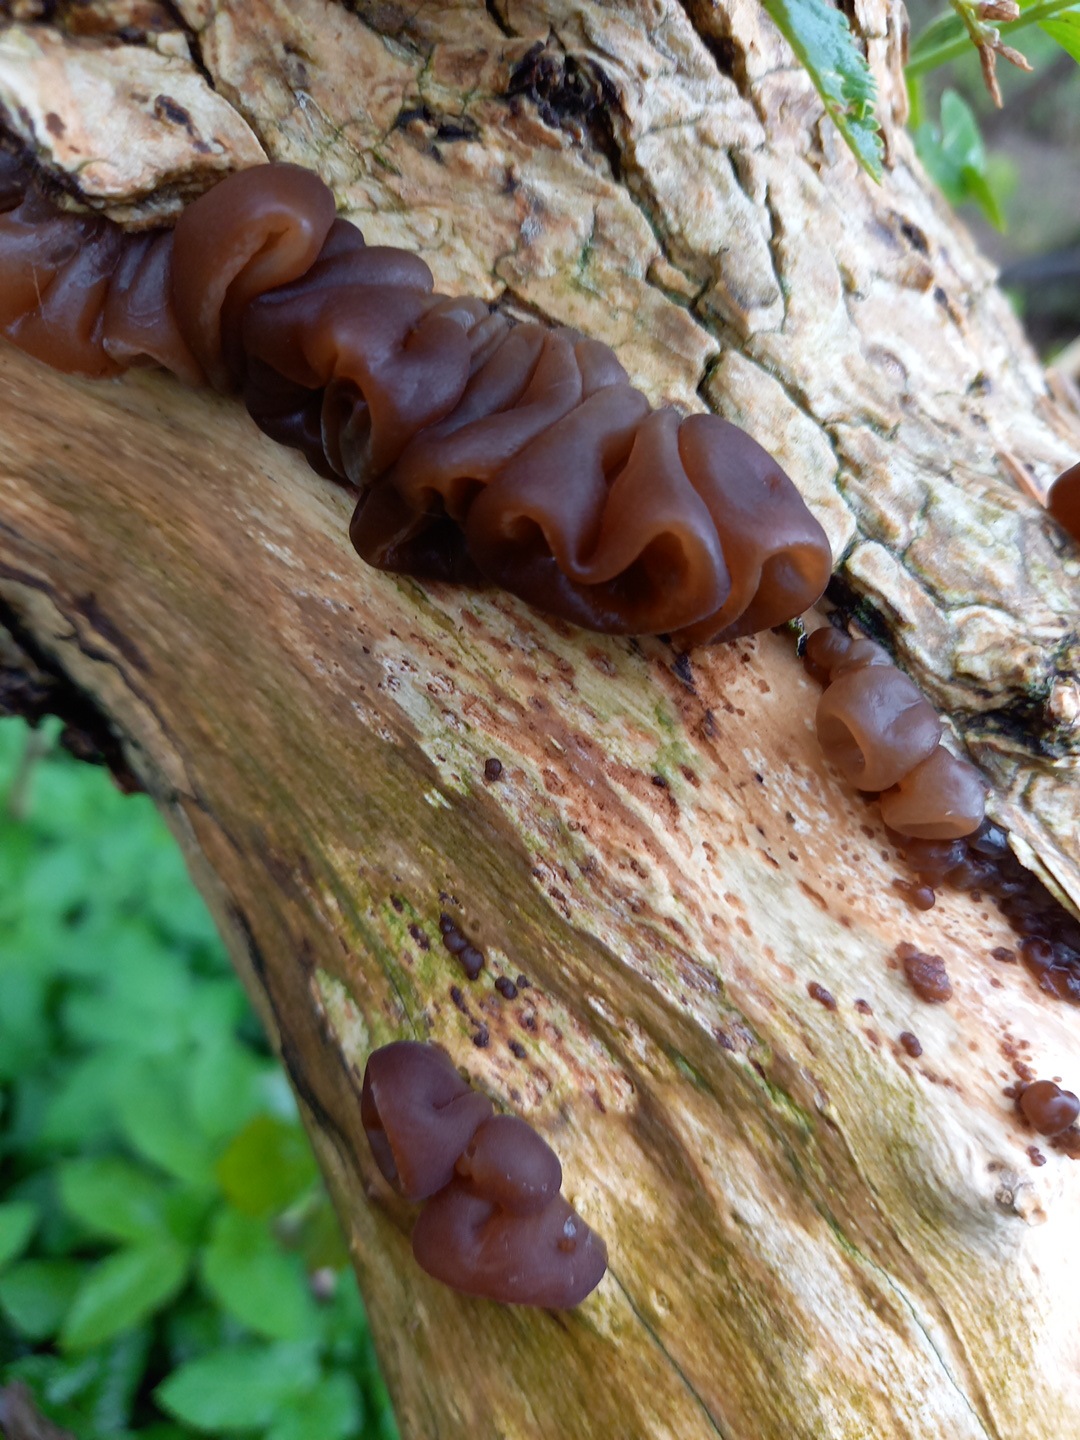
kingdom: Fungi
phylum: Basidiomycota
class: Agaricomycetes
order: Auriculariales
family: Auriculariaceae
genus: Auricularia
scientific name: Auricularia auricula-judae
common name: almindelig judasøre
